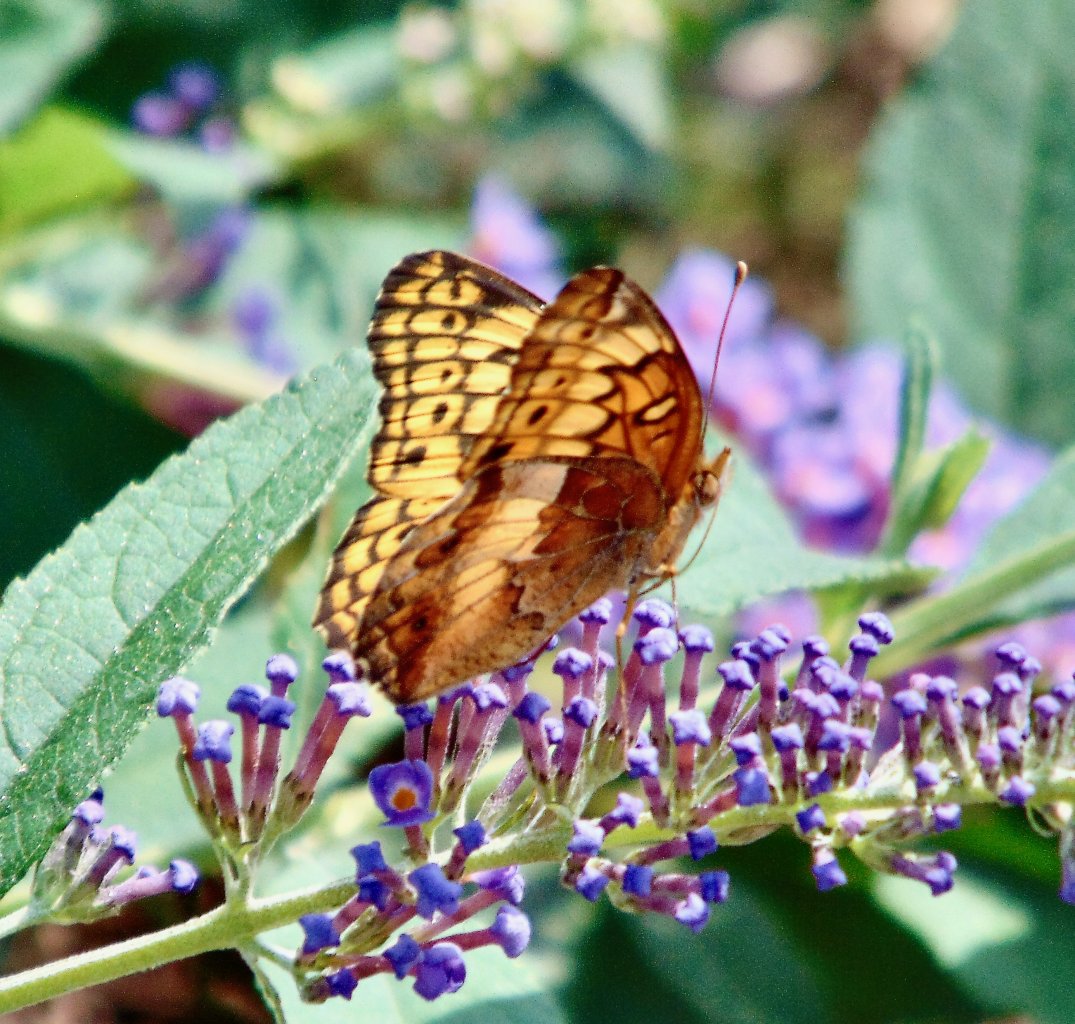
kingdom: Animalia
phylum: Arthropoda
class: Insecta
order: Lepidoptera
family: Nymphalidae
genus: Euptoieta
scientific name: Euptoieta claudia
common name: Variegated Fritillary
